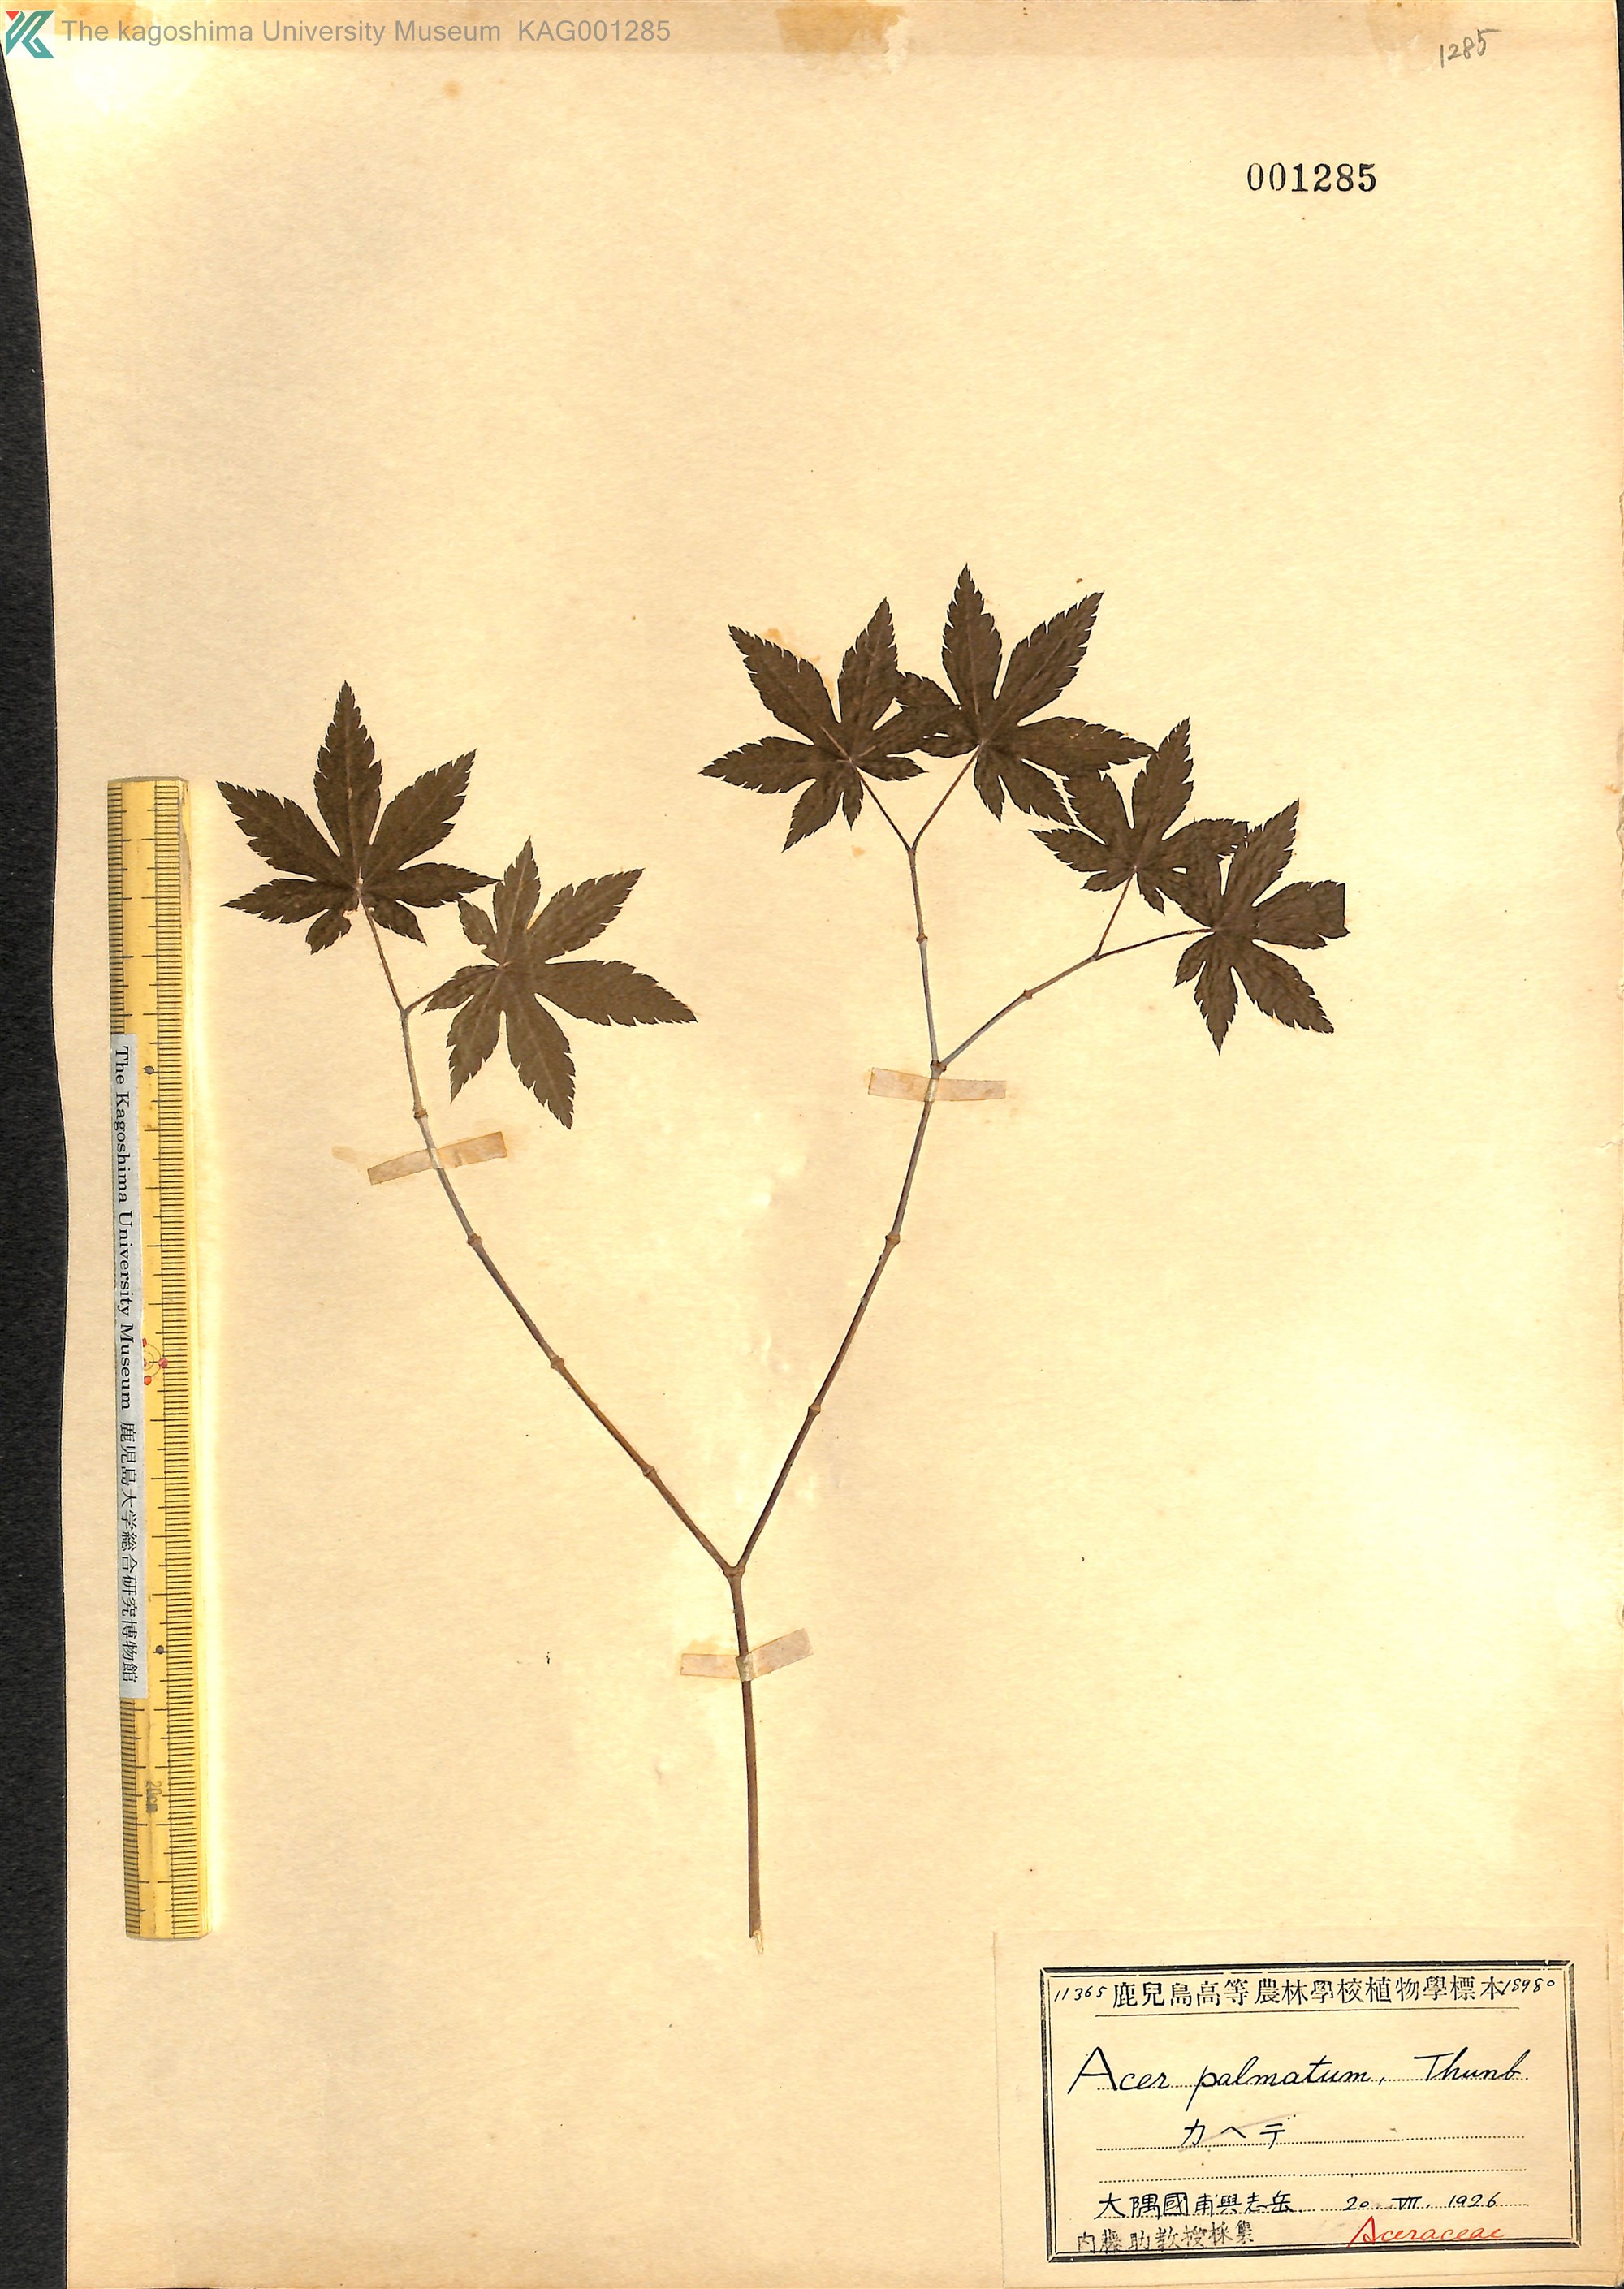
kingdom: Plantae
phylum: Tracheophyta
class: Magnoliopsida
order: Sapindales
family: Sapindaceae
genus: Acer
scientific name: Acer palmatum
